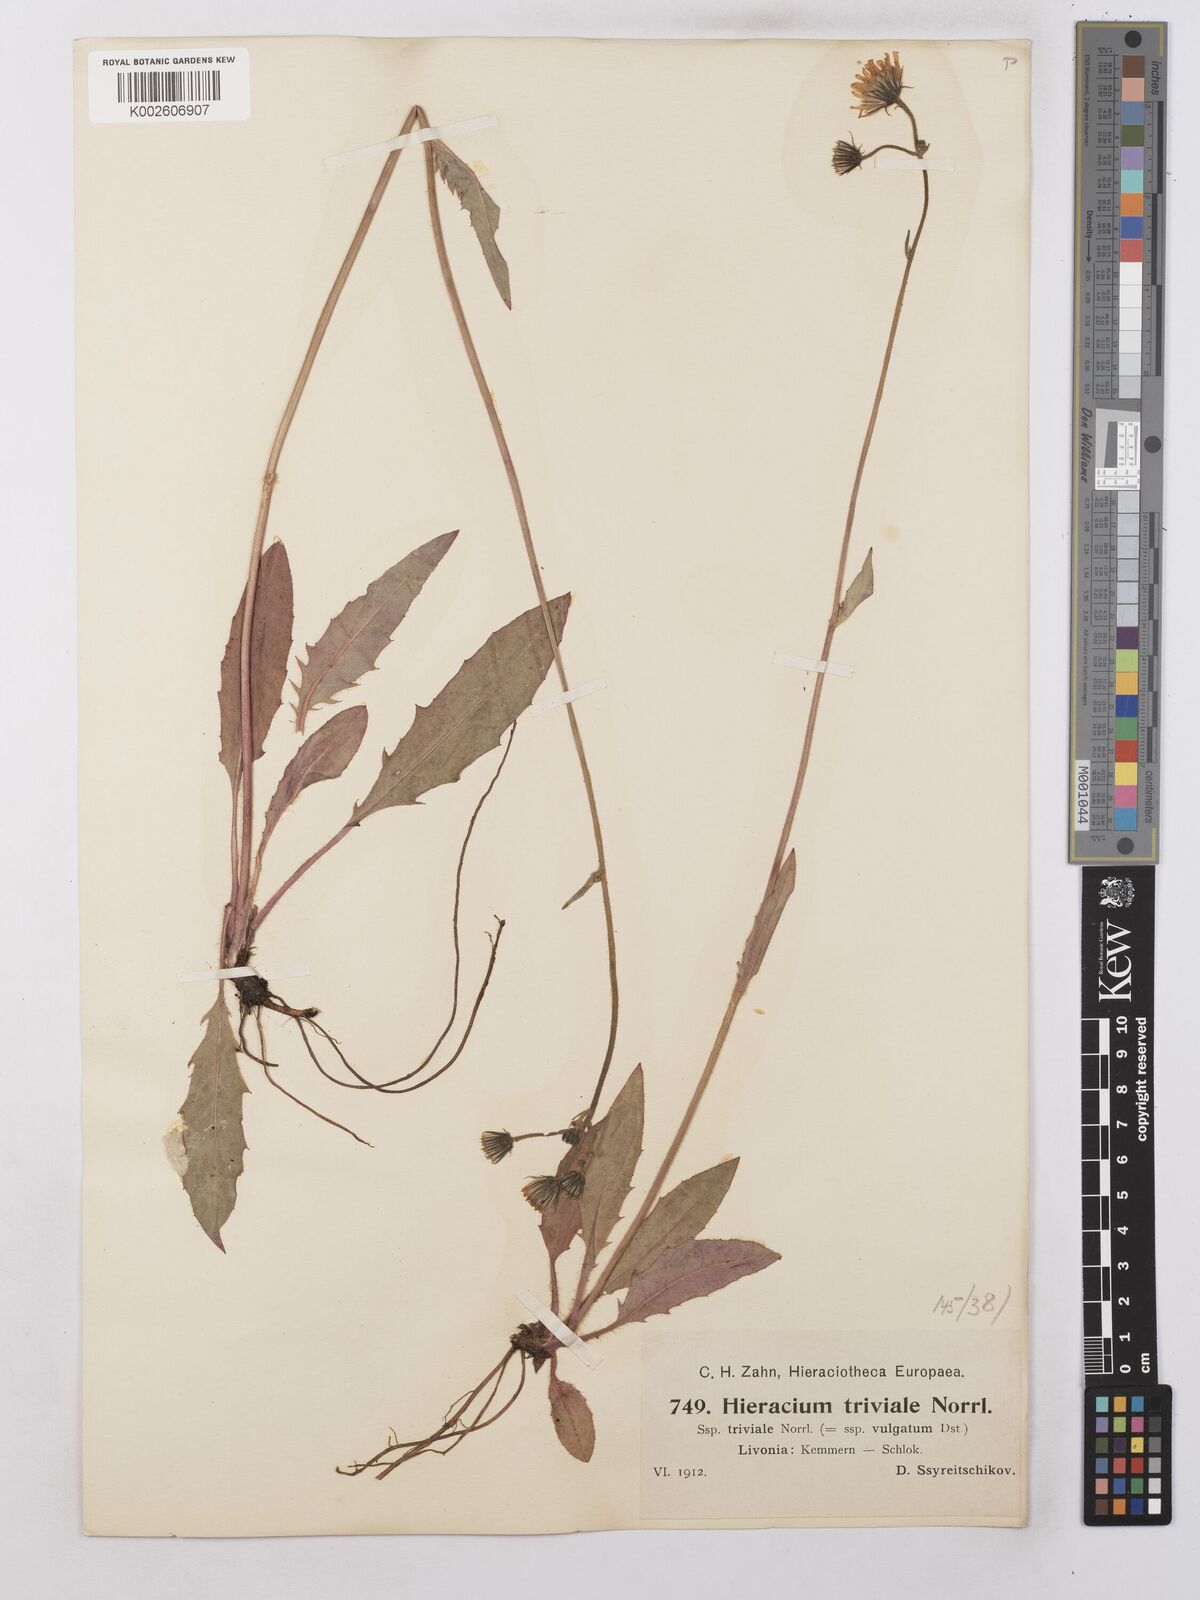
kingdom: Plantae
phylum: Tracheophyta
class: Magnoliopsida
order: Asterales
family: Asteraceae
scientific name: Asteraceae
